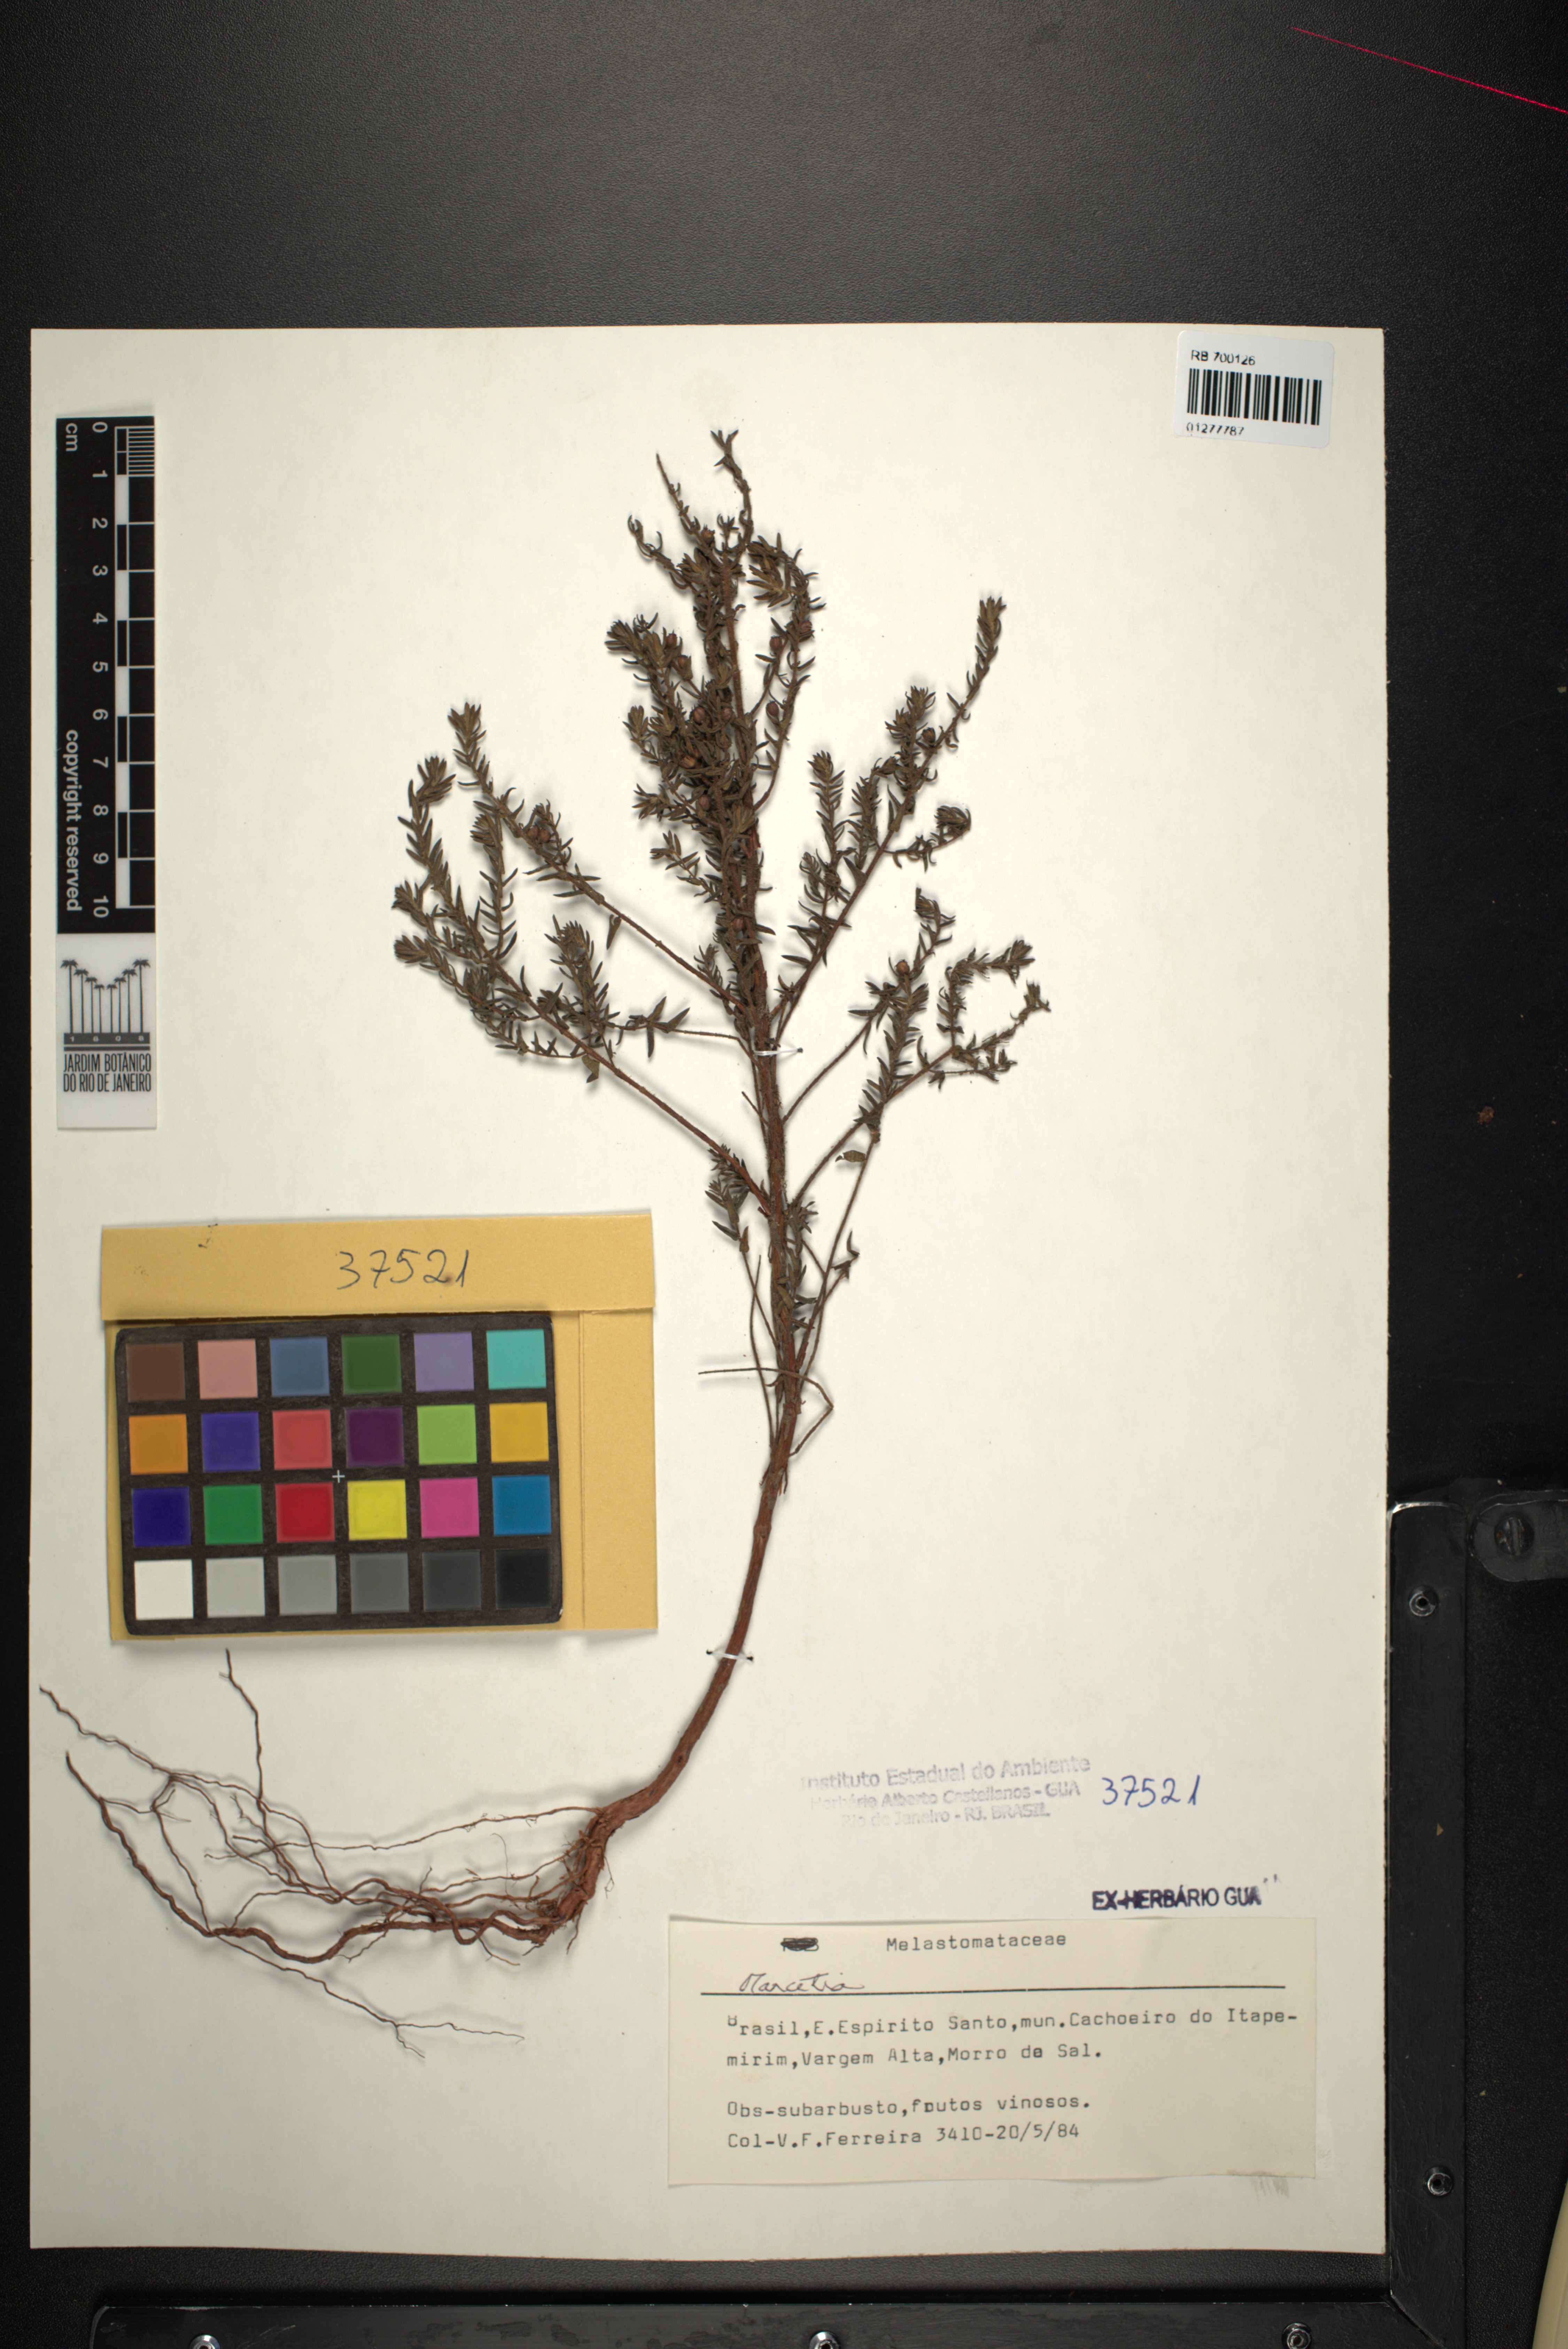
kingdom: Plantae
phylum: Tracheophyta
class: Magnoliopsida
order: Myrtales
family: Melastomataceae
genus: Marcetia
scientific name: Marcetia
